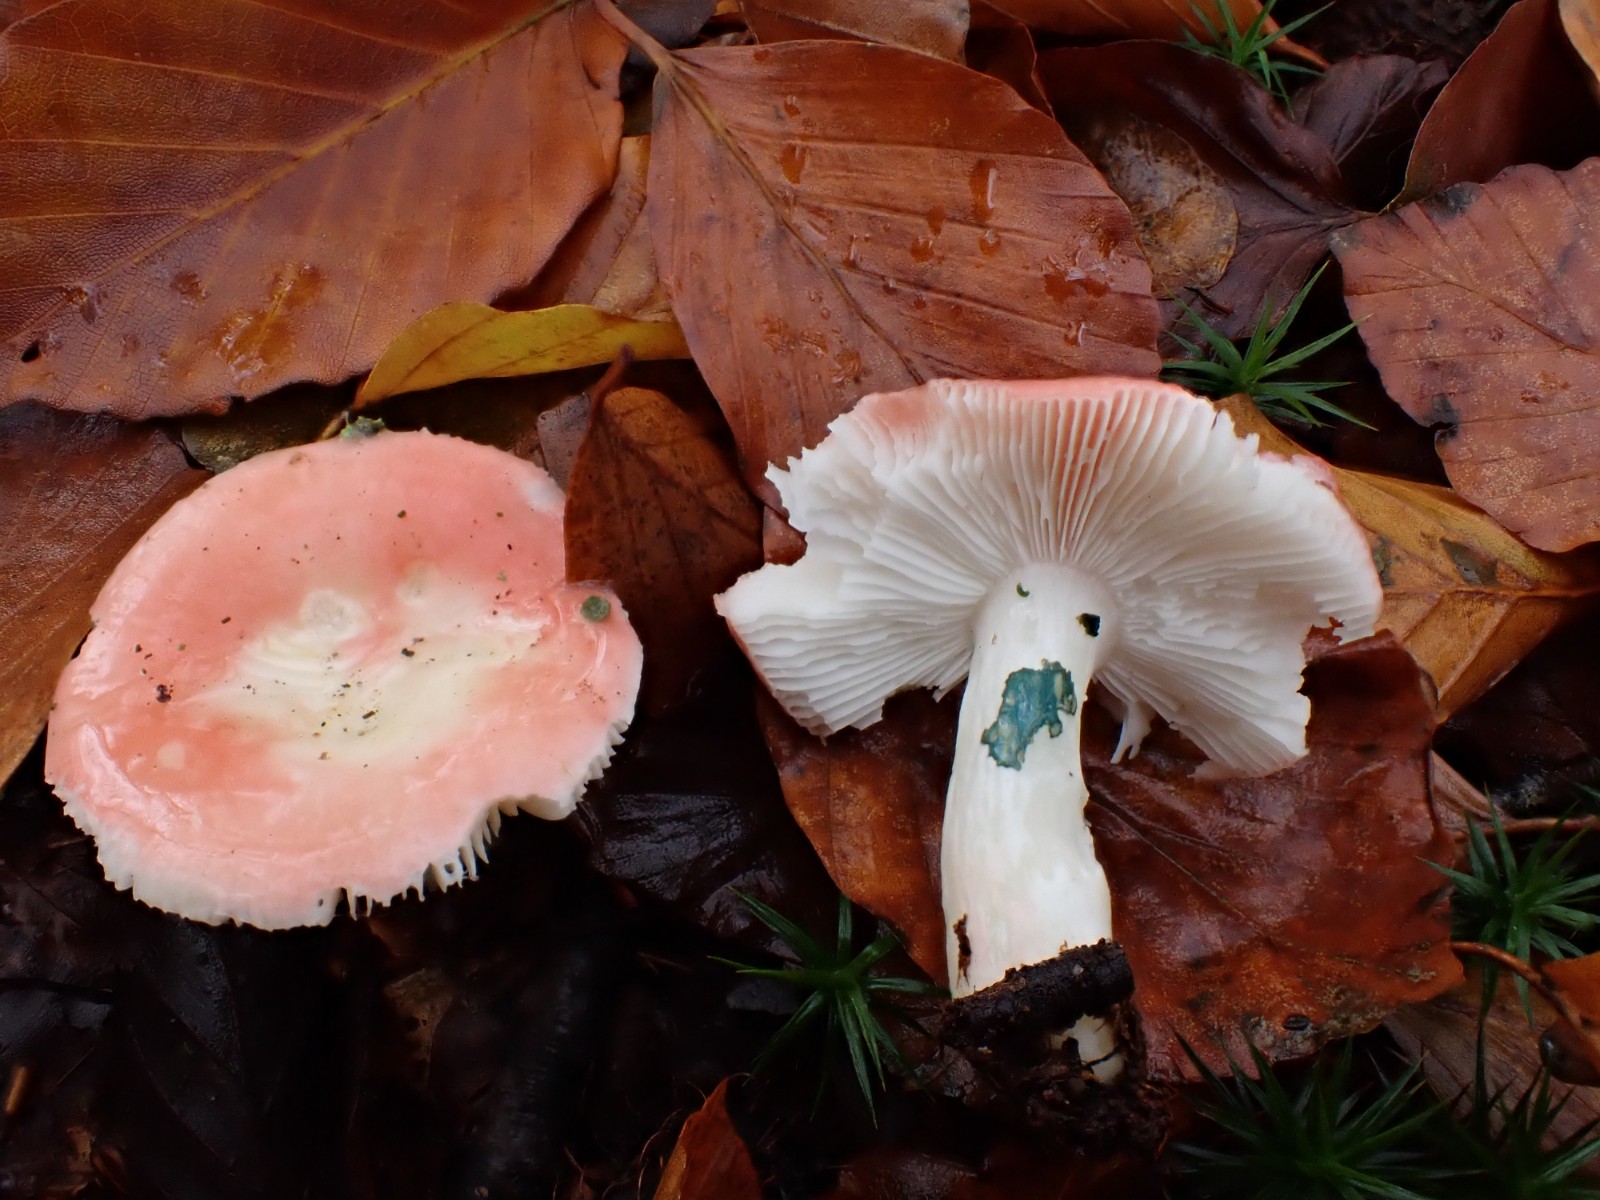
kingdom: Fungi
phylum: Basidiomycota
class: Agaricomycetes
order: Russulales
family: Russulaceae
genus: Russula
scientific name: Russula nobilis
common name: lille gift-skørhat
